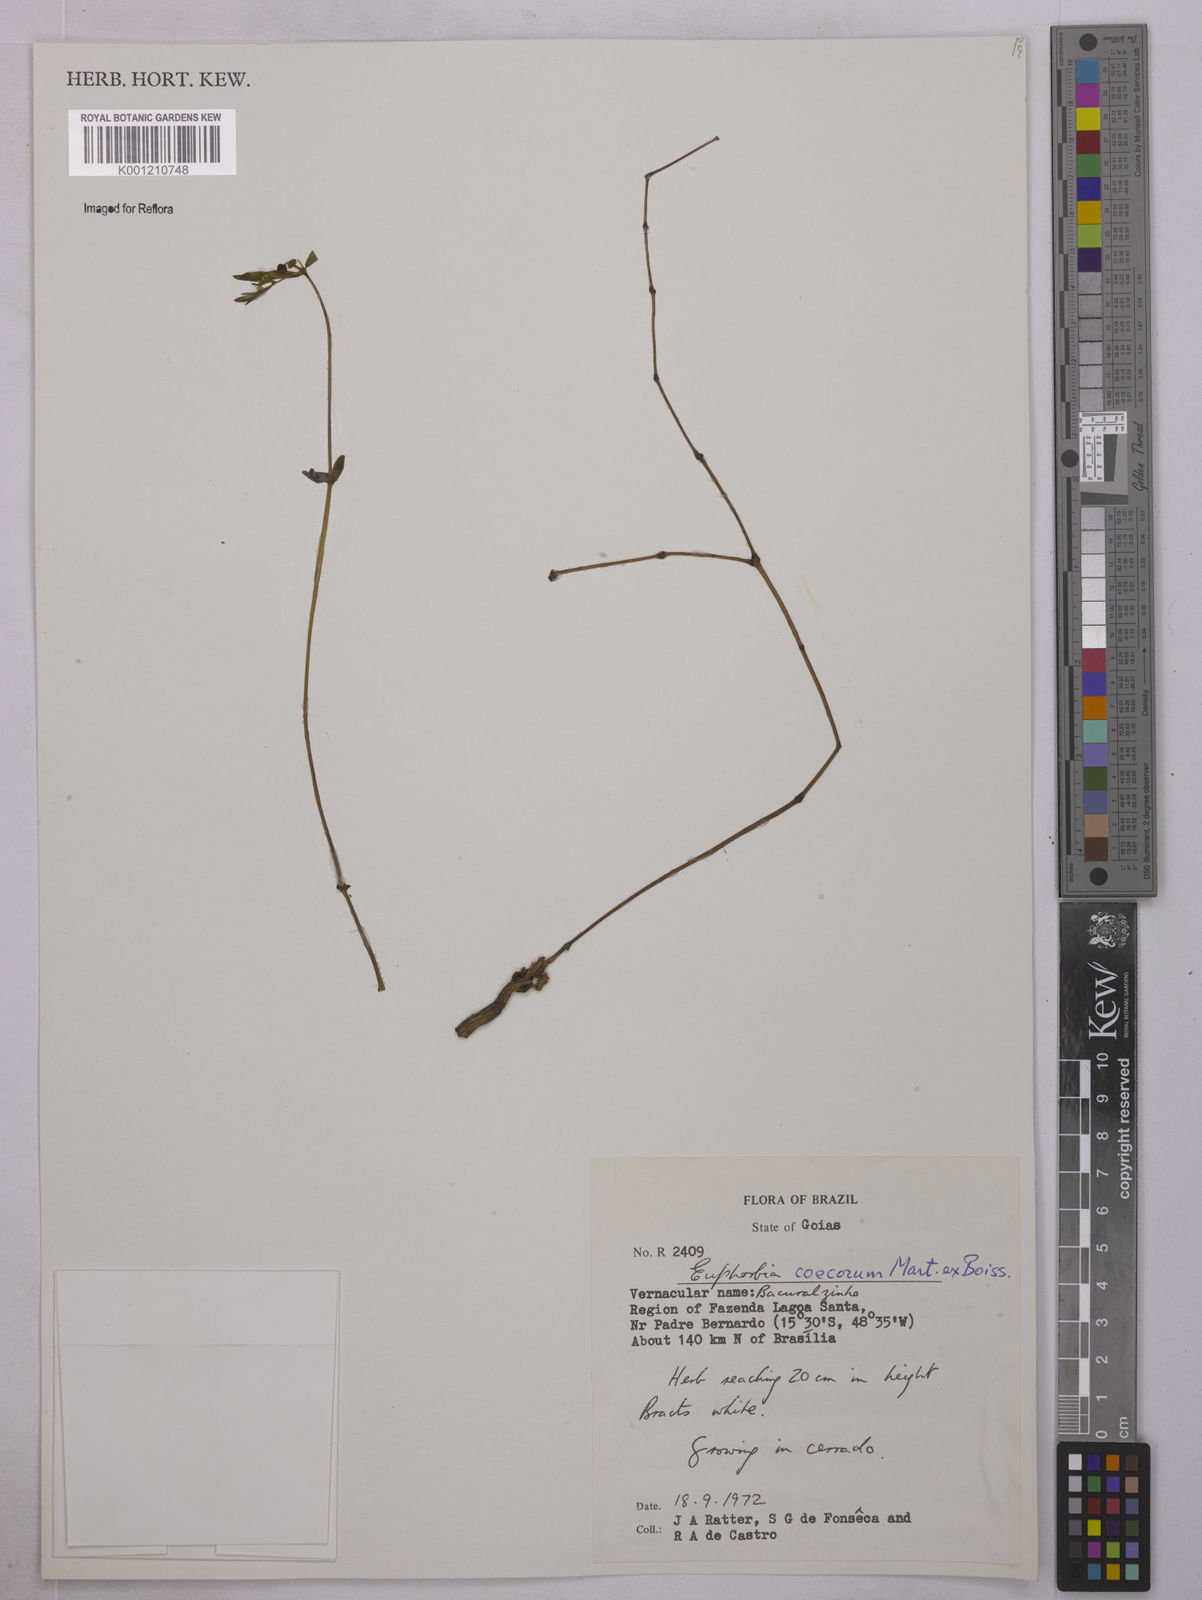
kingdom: Plantae
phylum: Tracheophyta
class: Magnoliopsida
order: Malpighiales
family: Euphorbiaceae
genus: Euphorbia
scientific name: Euphorbia potentilloides
